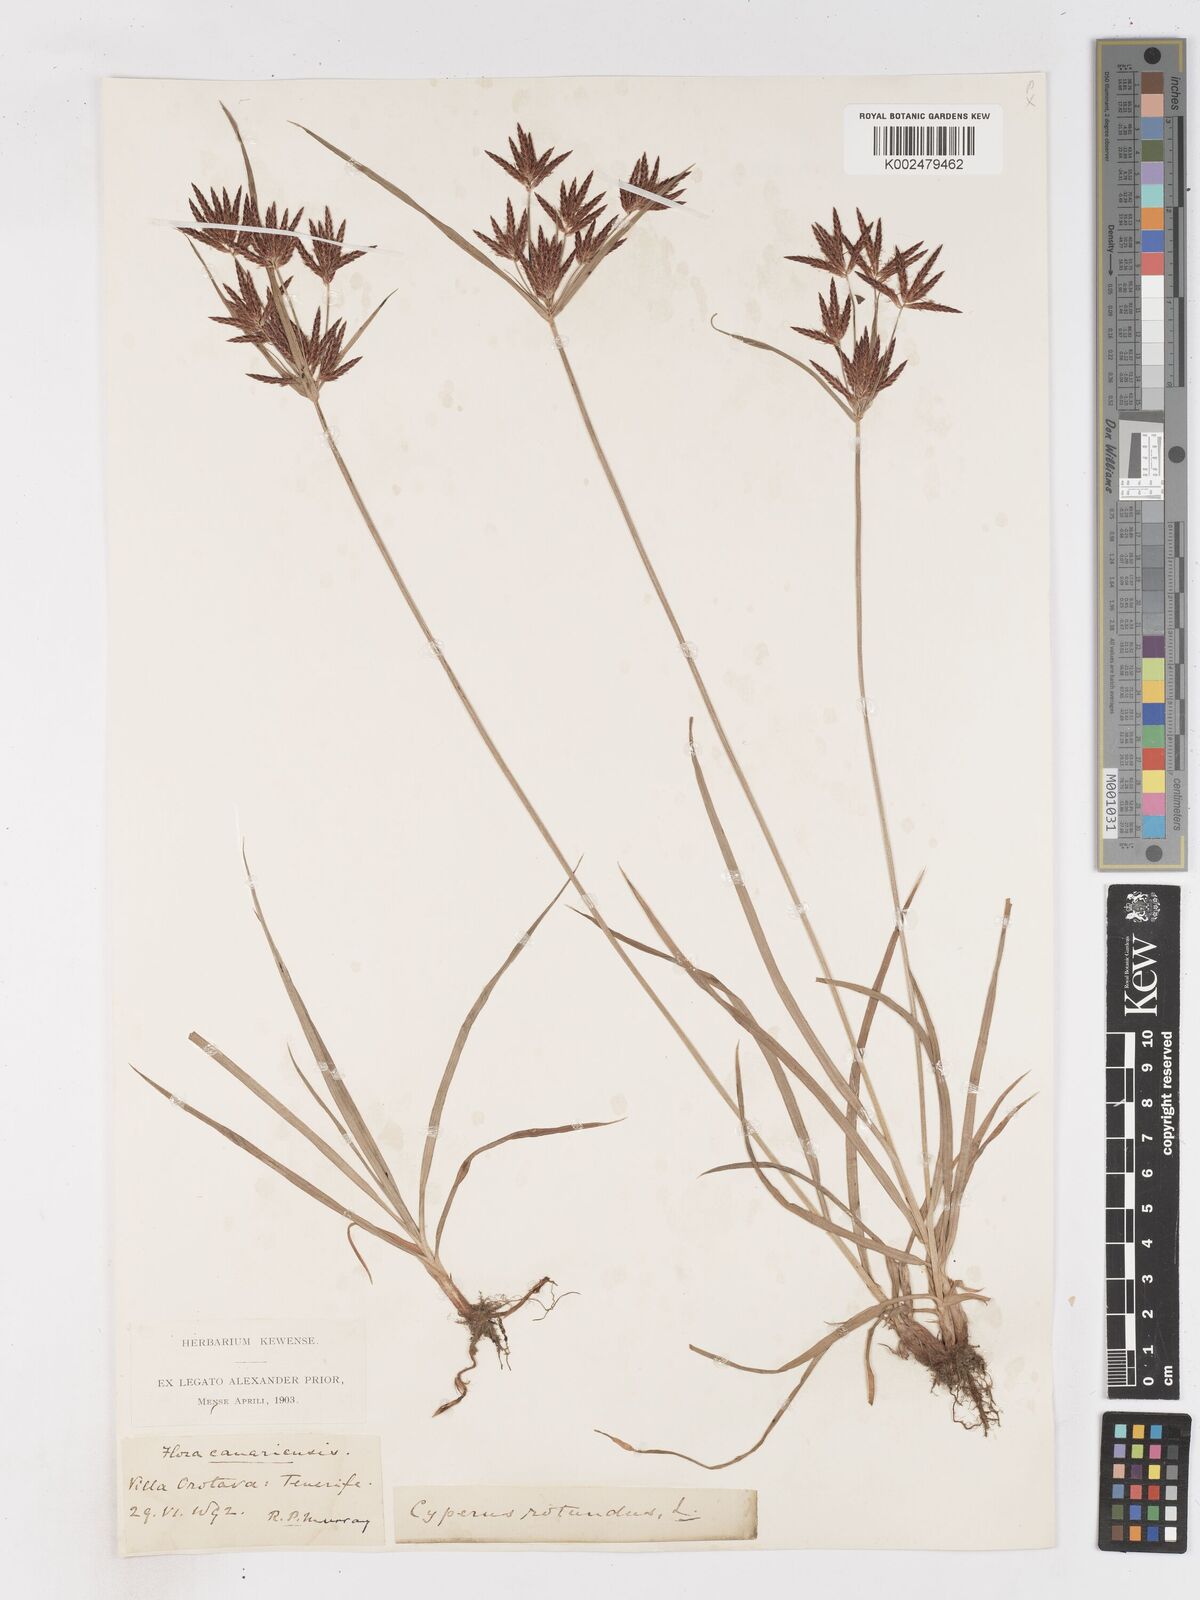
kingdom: Plantae
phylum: Tracheophyta
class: Liliopsida
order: Poales
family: Cyperaceae
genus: Cyperus
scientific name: Cyperus longus
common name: Galingale
